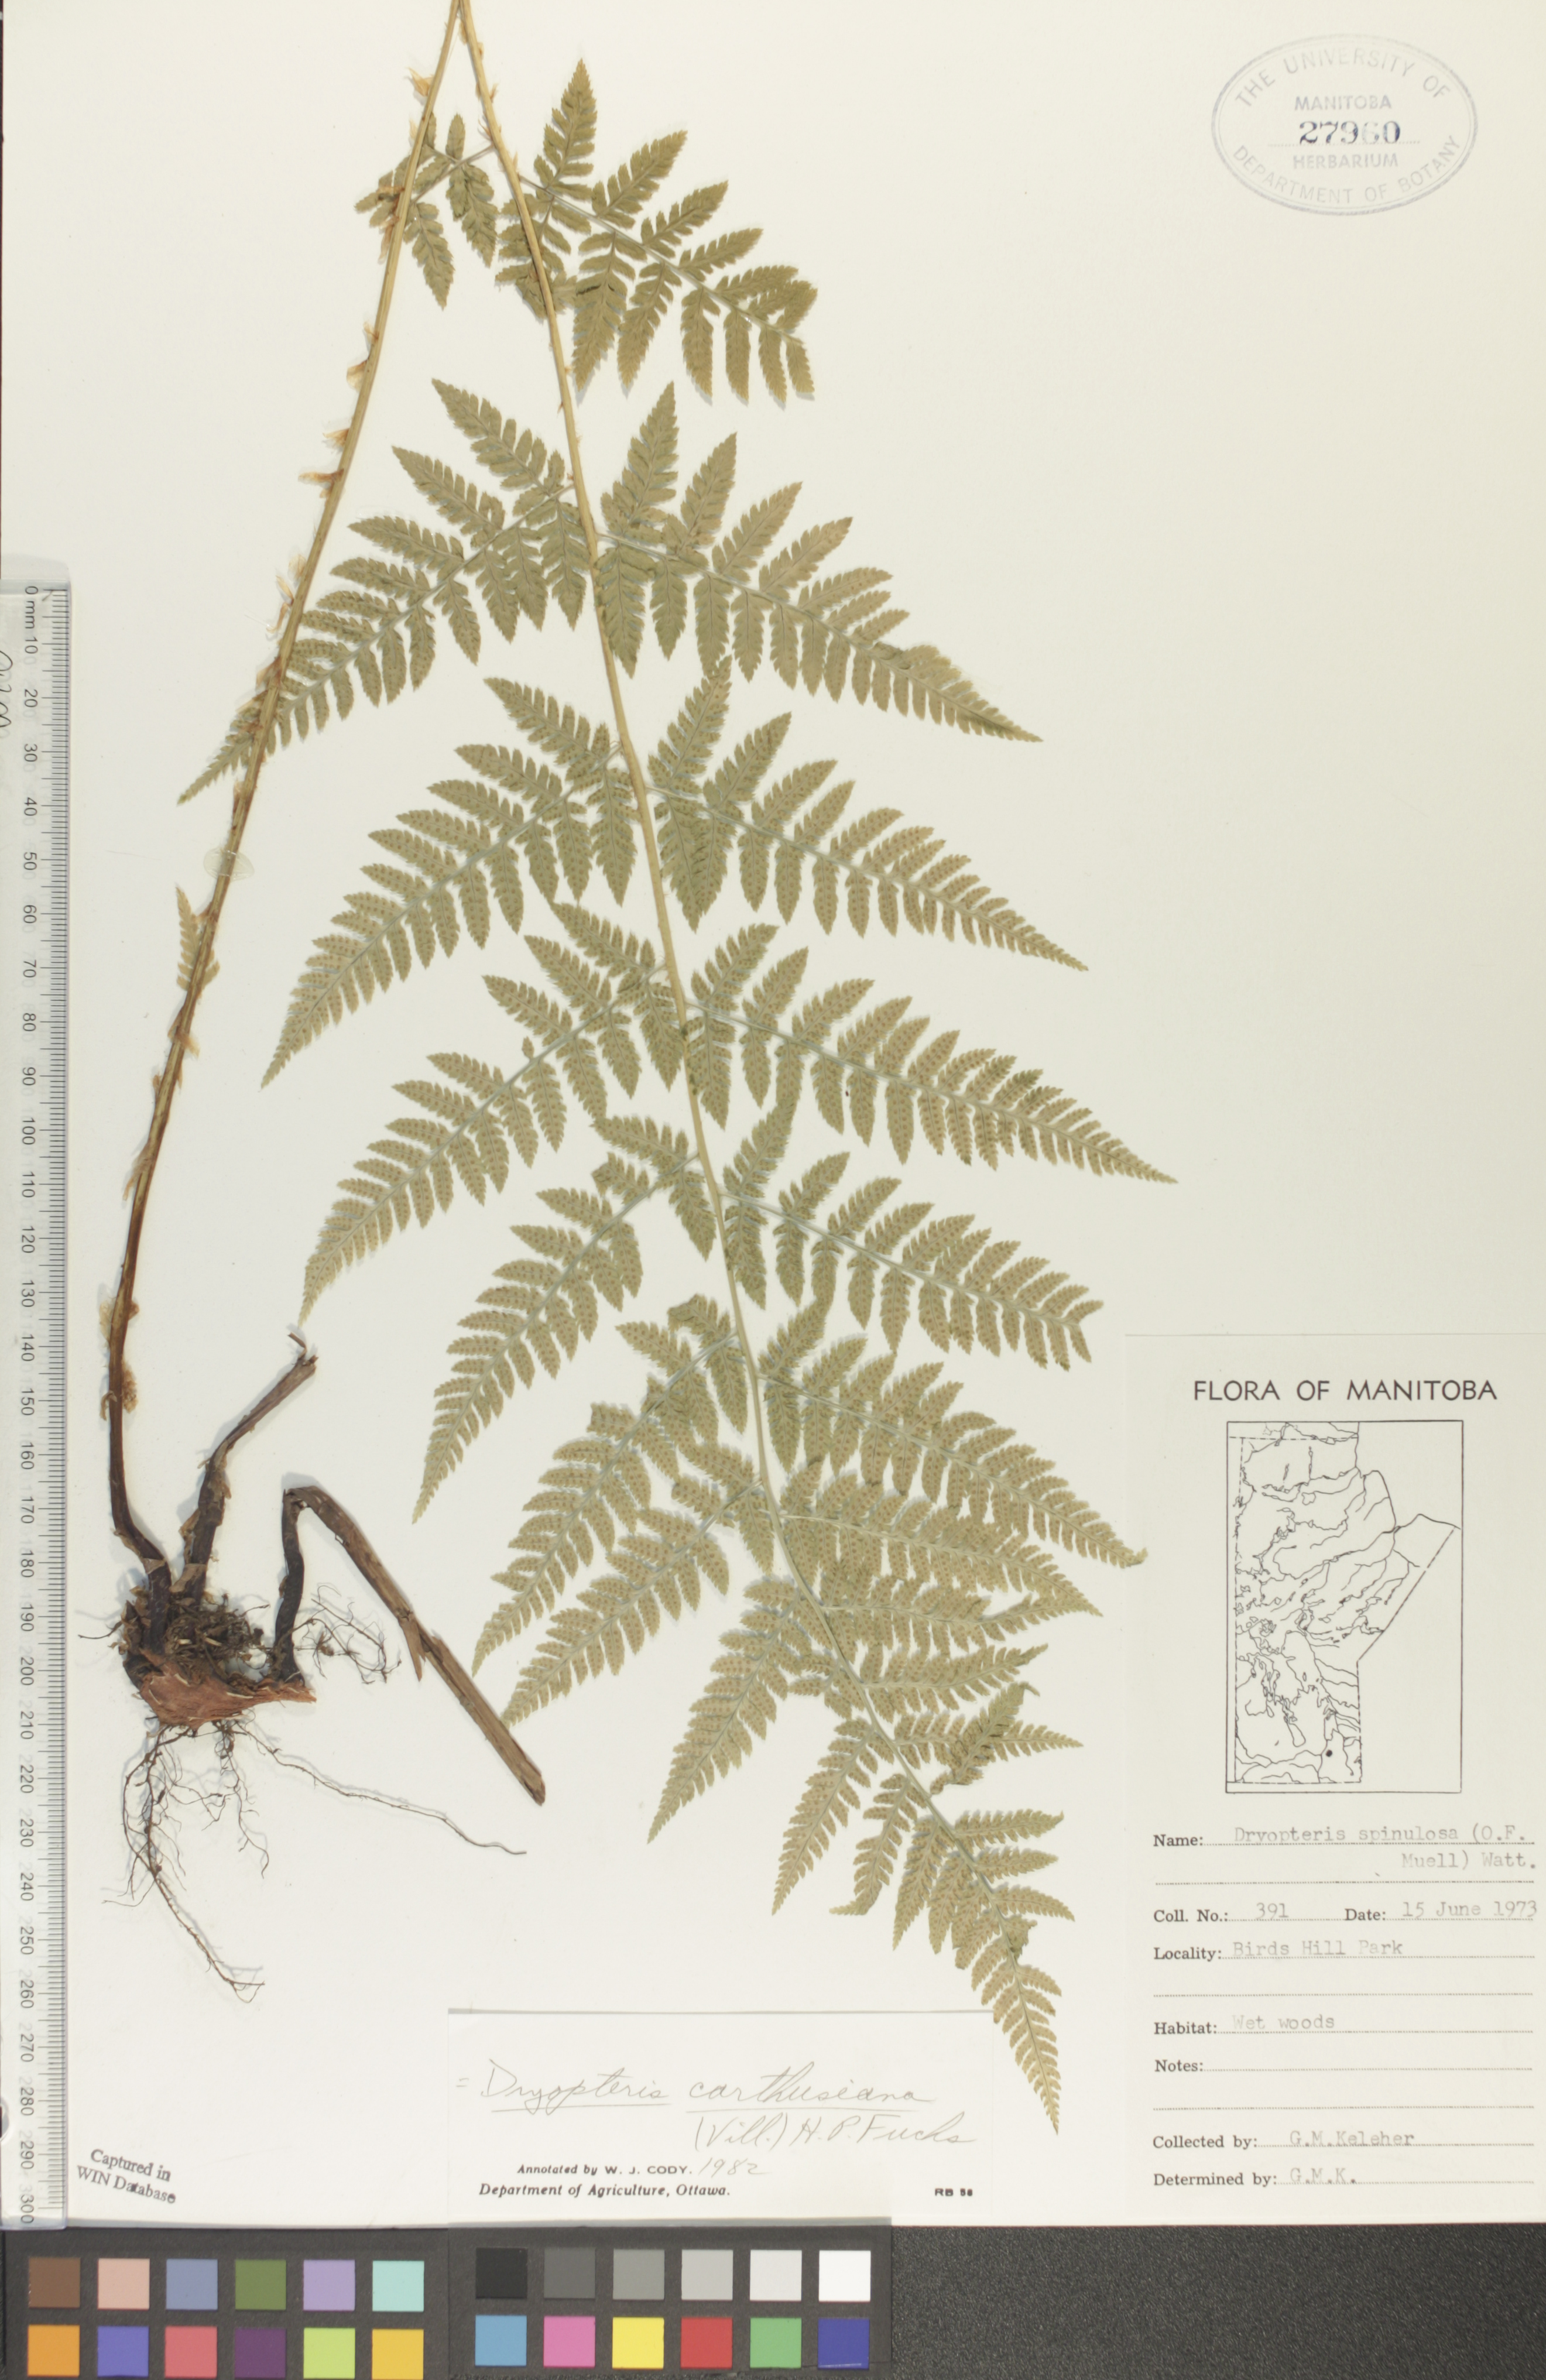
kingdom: Plantae
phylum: Tracheophyta
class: Polypodiopsida
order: Polypodiales
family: Dryopteridaceae
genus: Dryopteris
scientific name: Dryopteris carthusiana
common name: Narrow buckler-fern
